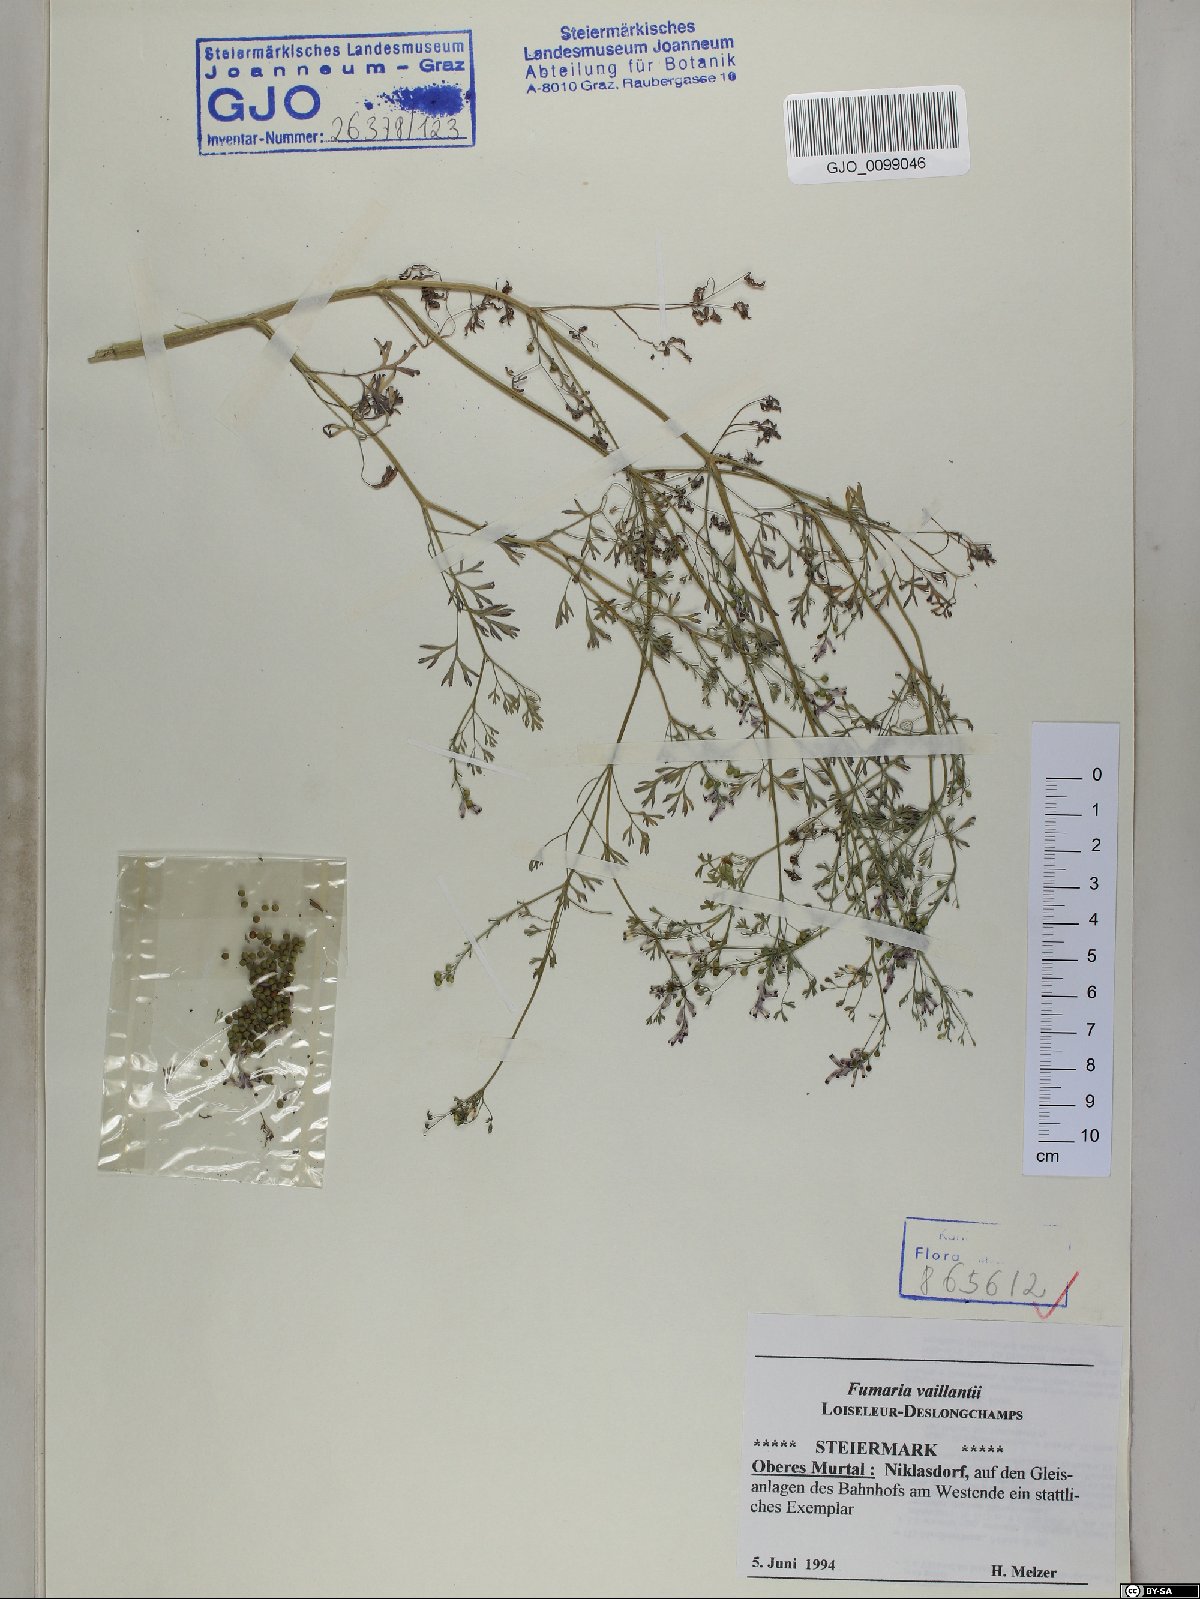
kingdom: Plantae
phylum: Tracheophyta
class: Magnoliopsida
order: Ranunculales
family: Papaveraceae
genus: Fumaria
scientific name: Fumaria vaillantii
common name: Few-flowered fumitory
